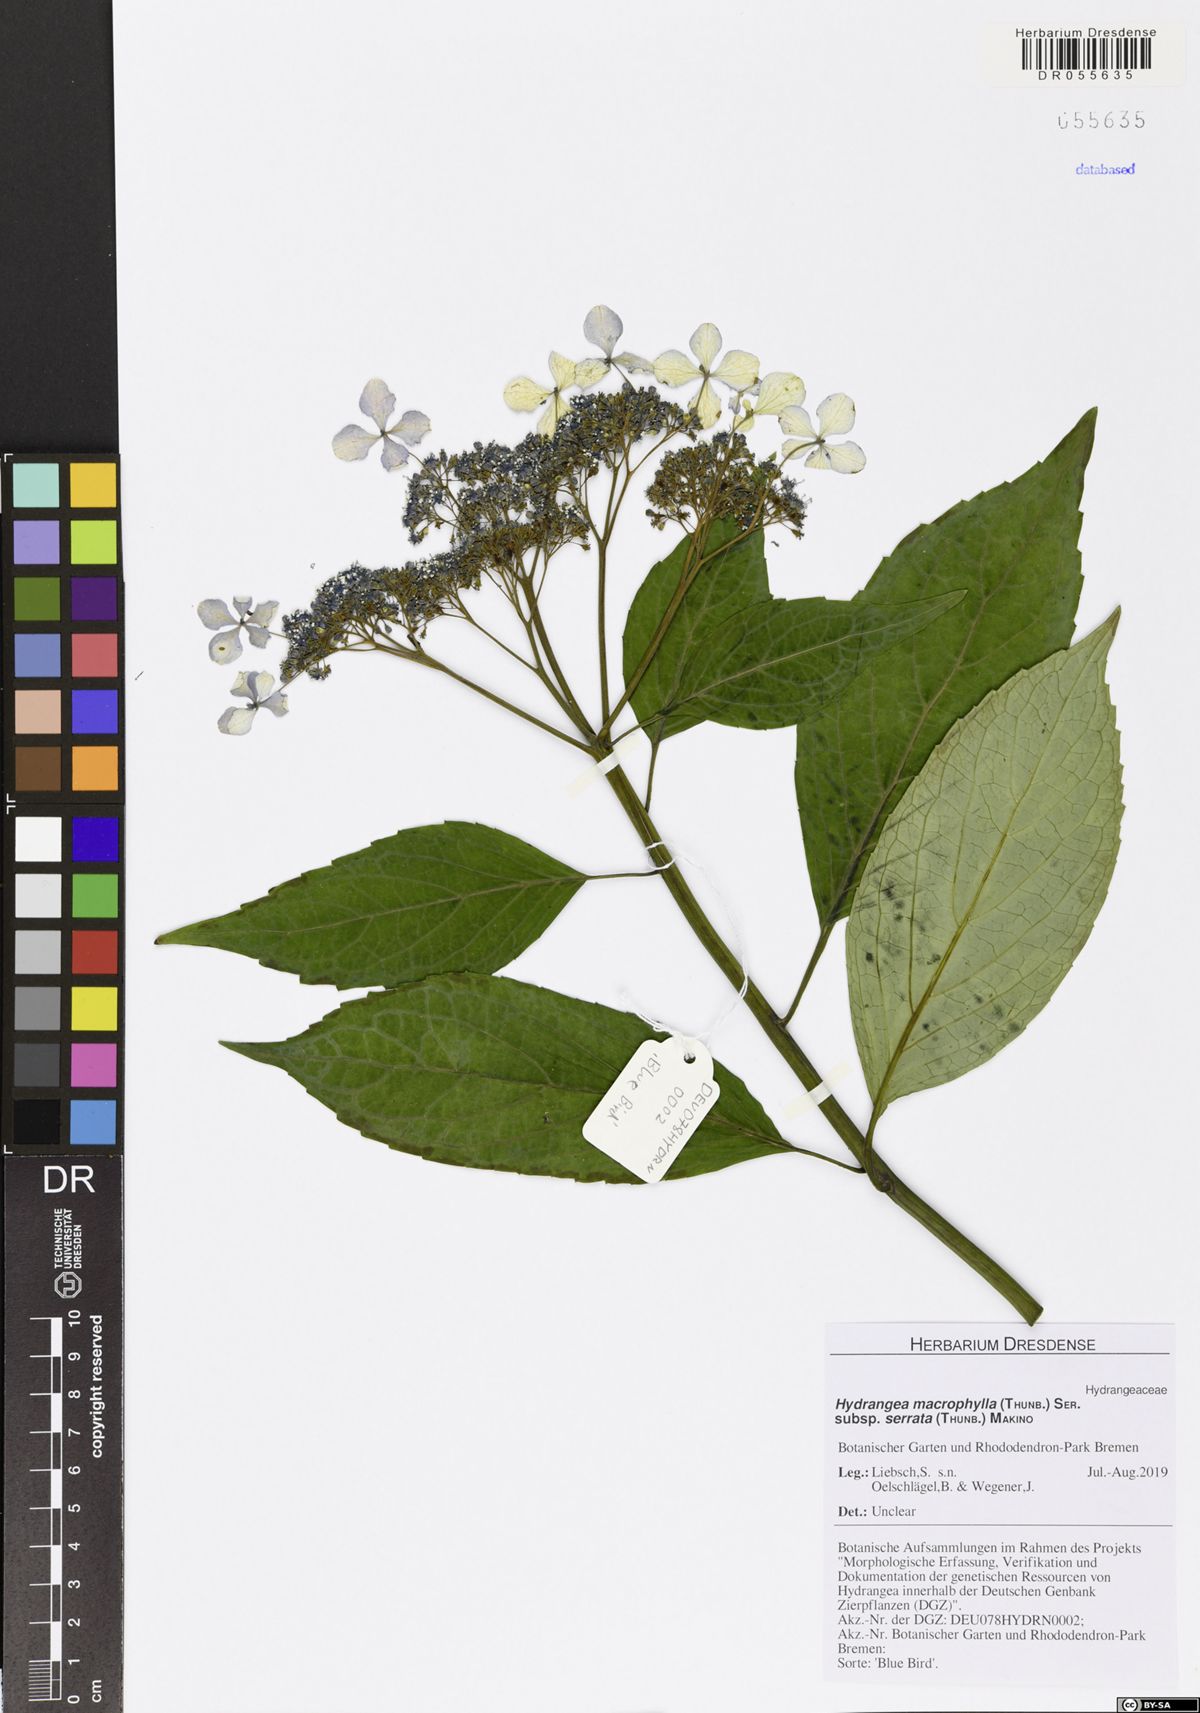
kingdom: Plantae
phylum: Tracheophyta
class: Magnoliopsida
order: Cornales
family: Hydrangeaceae
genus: Hydrangea
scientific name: Hydrangea serrata
